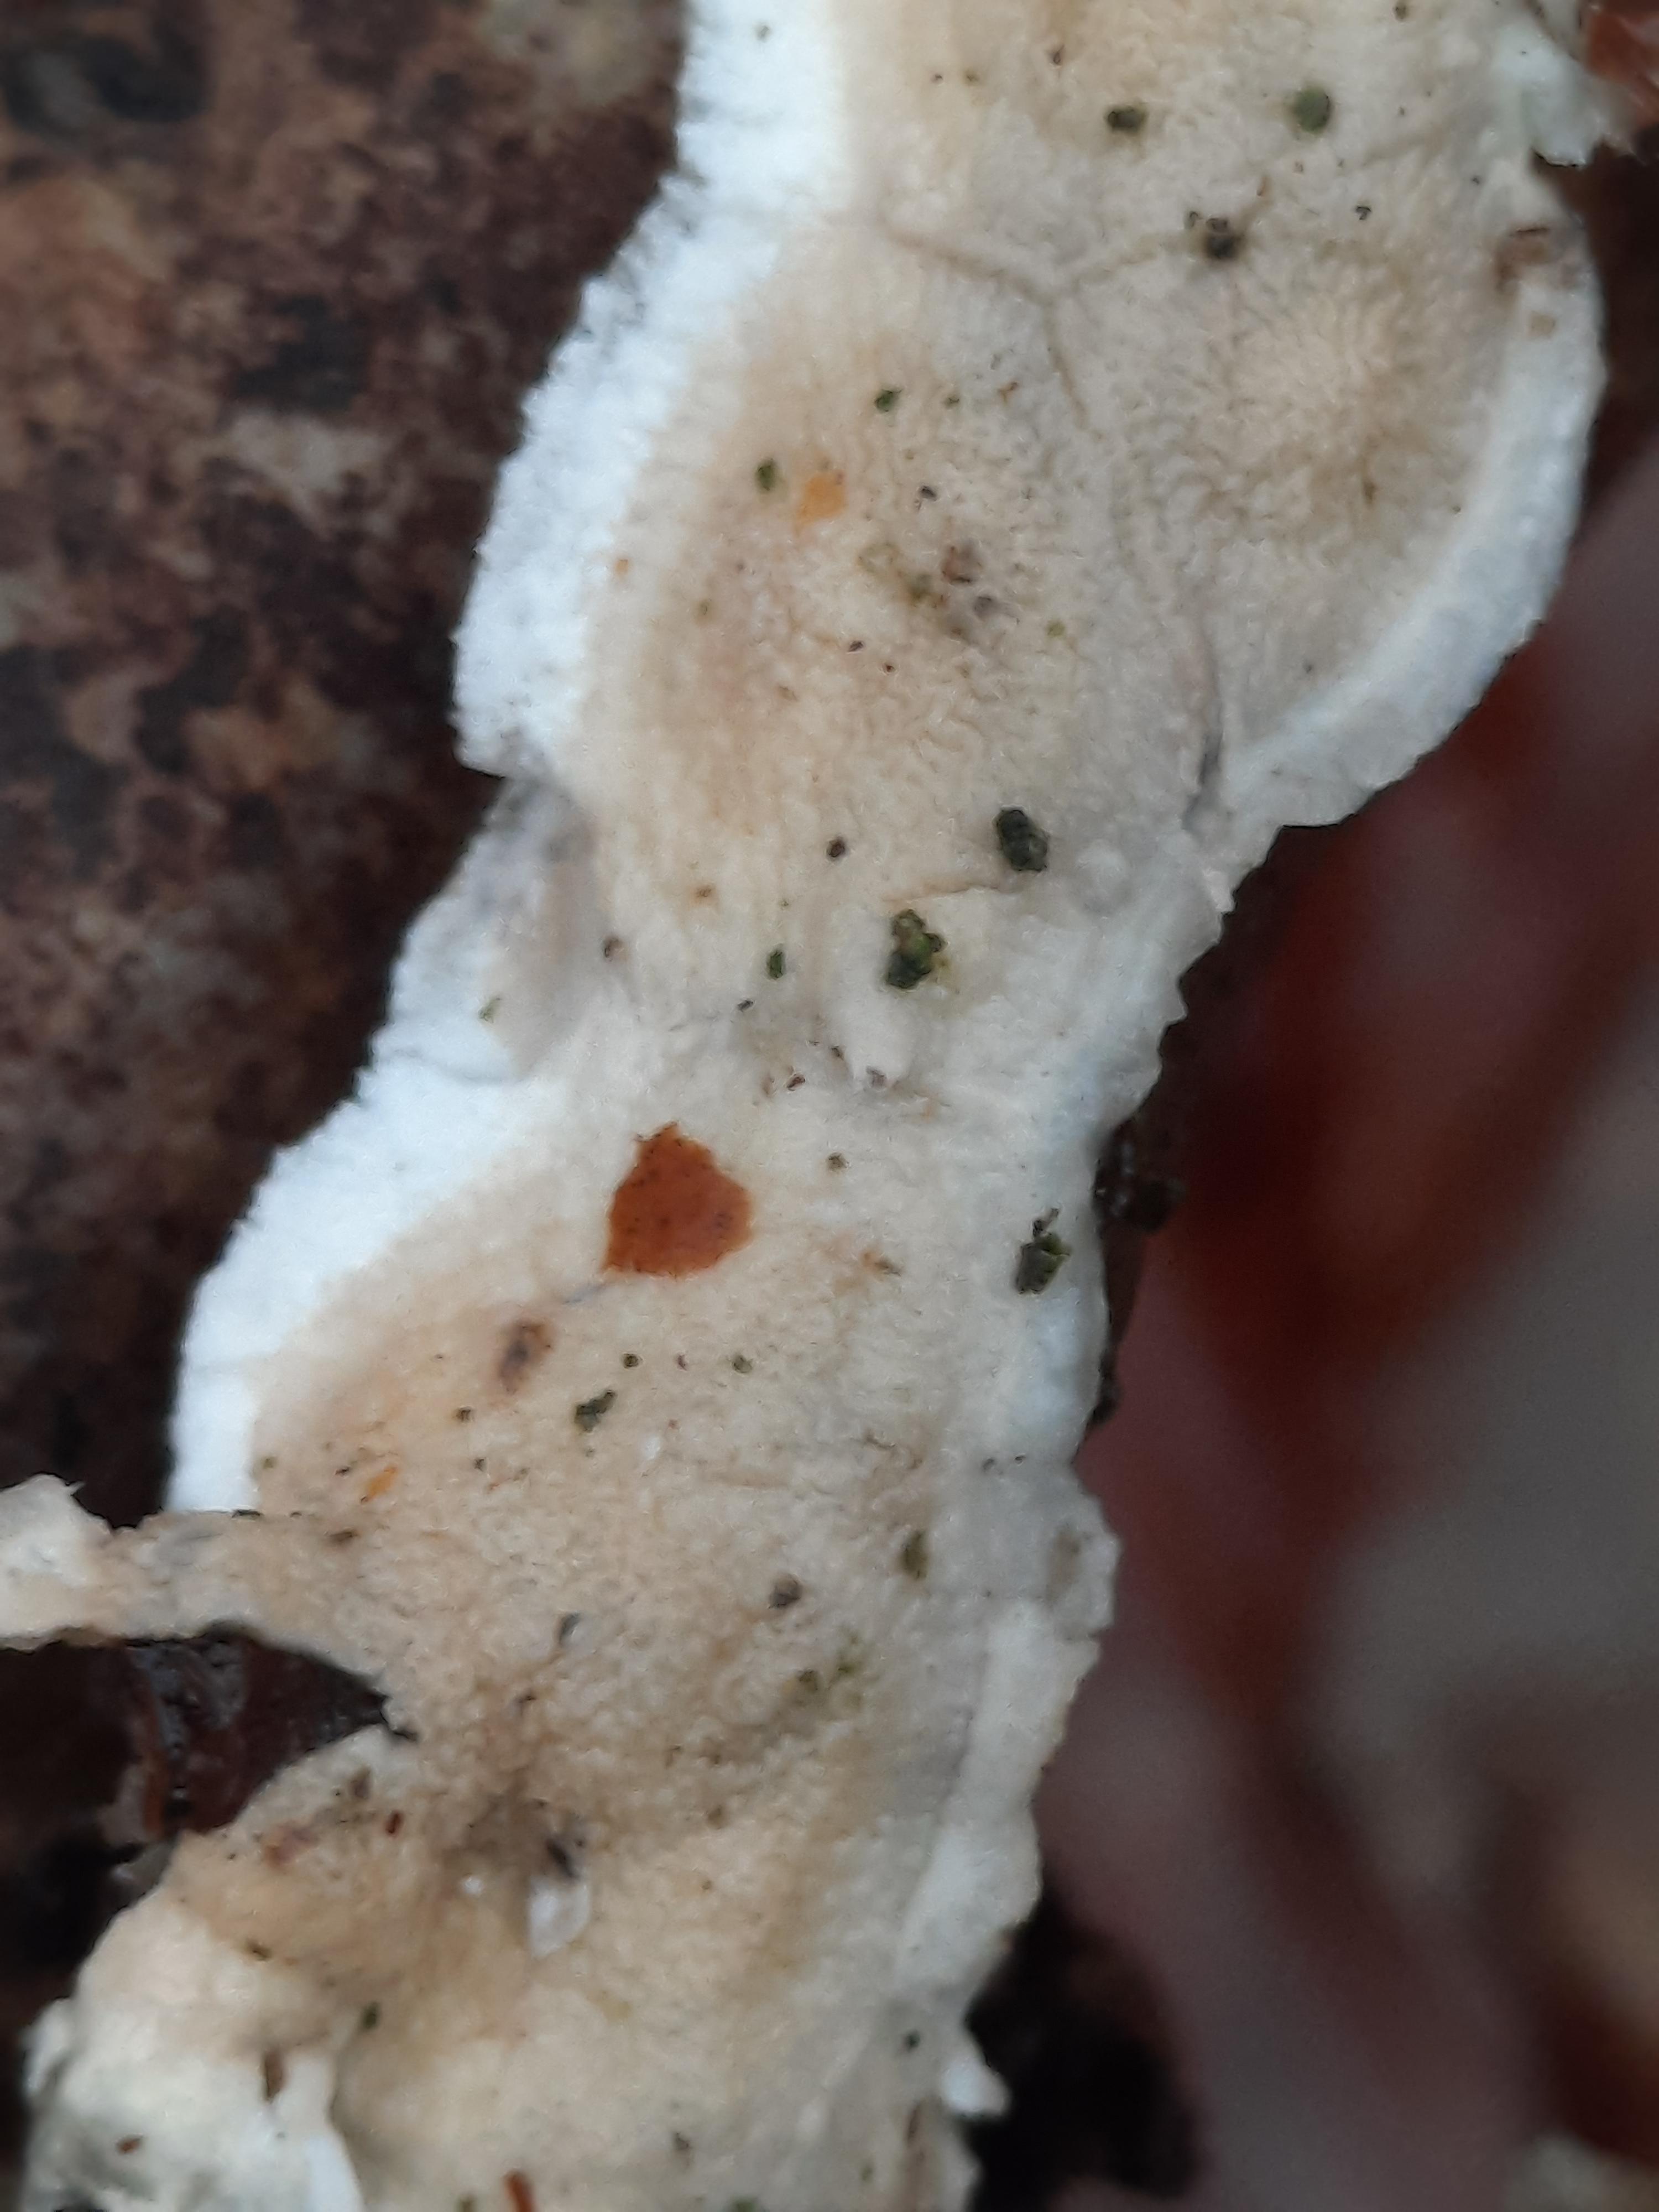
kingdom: Fungi
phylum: Basidiomycota
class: Agaricomycetes
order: Polyporales
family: Irpicaceae
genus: Byssomerulius
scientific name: Byssomerulius corium
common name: læder-åresvamp
